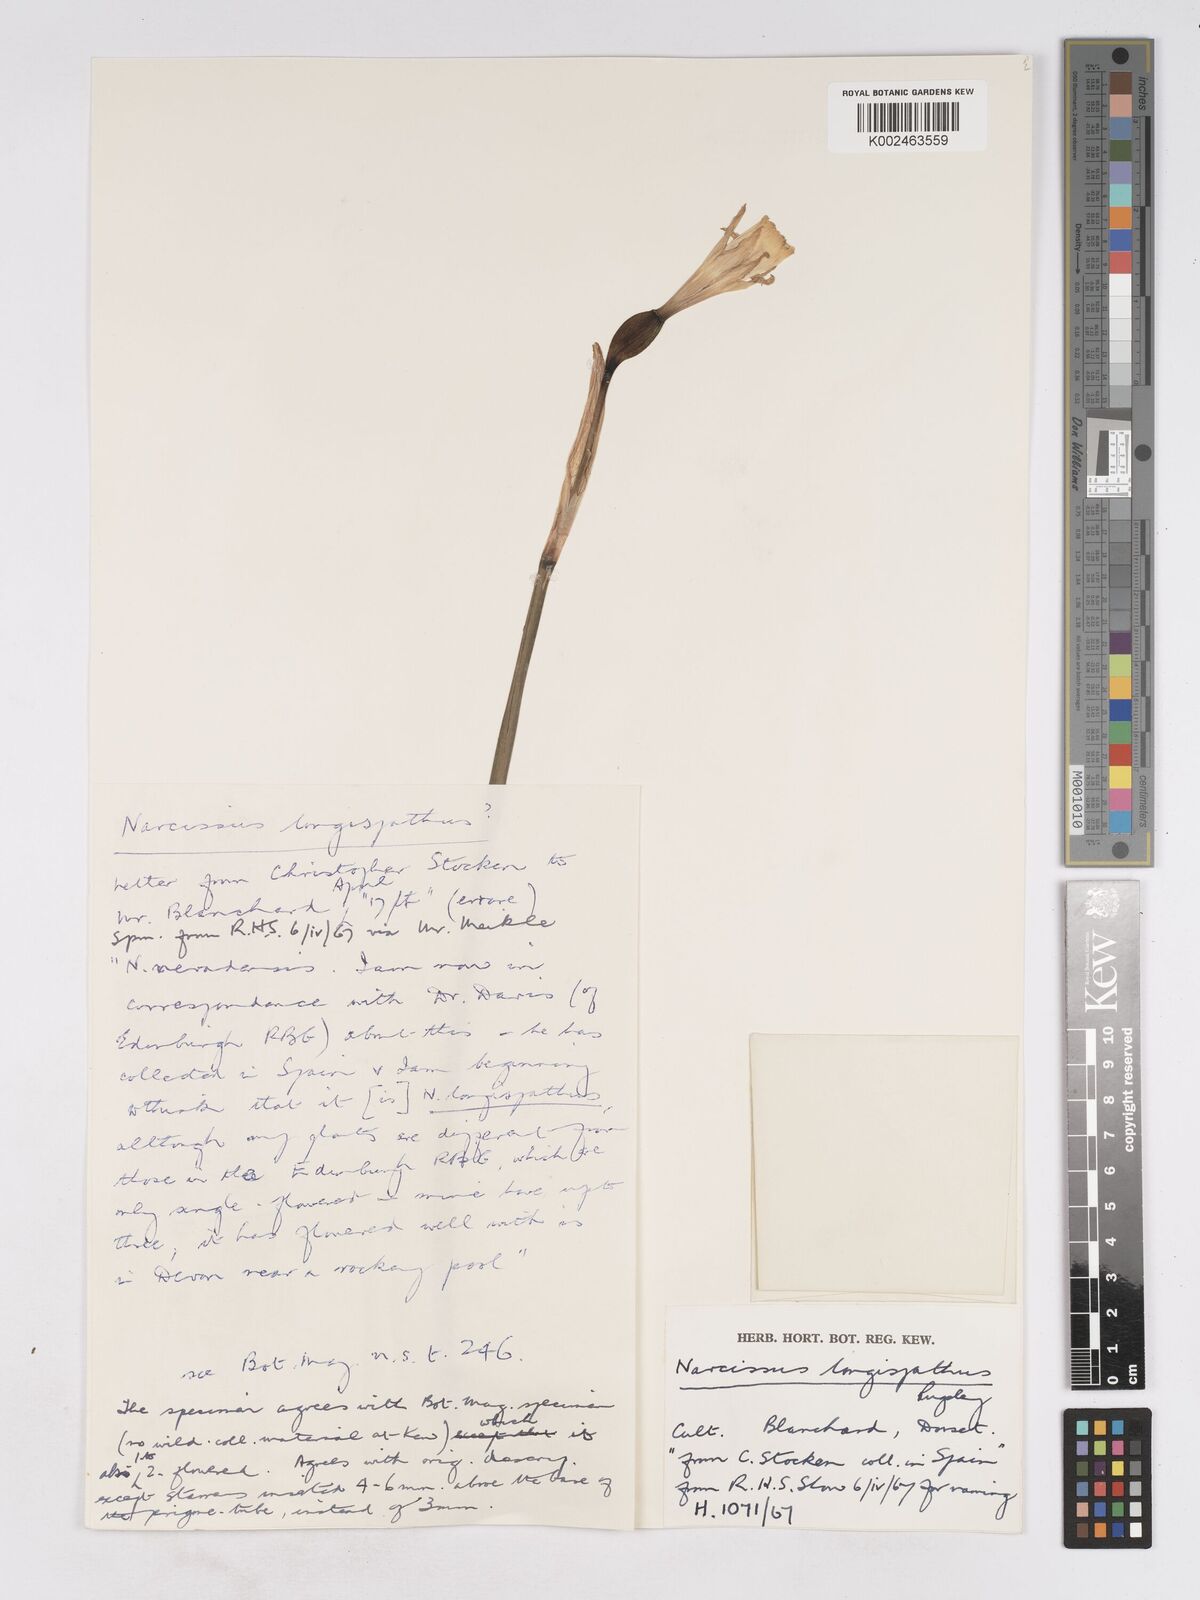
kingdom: Plantae
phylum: Tracheophyta
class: Liliopsida
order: Asparagales
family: Amaryllidaceae
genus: Narcissus
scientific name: Narcissus nevadensis
